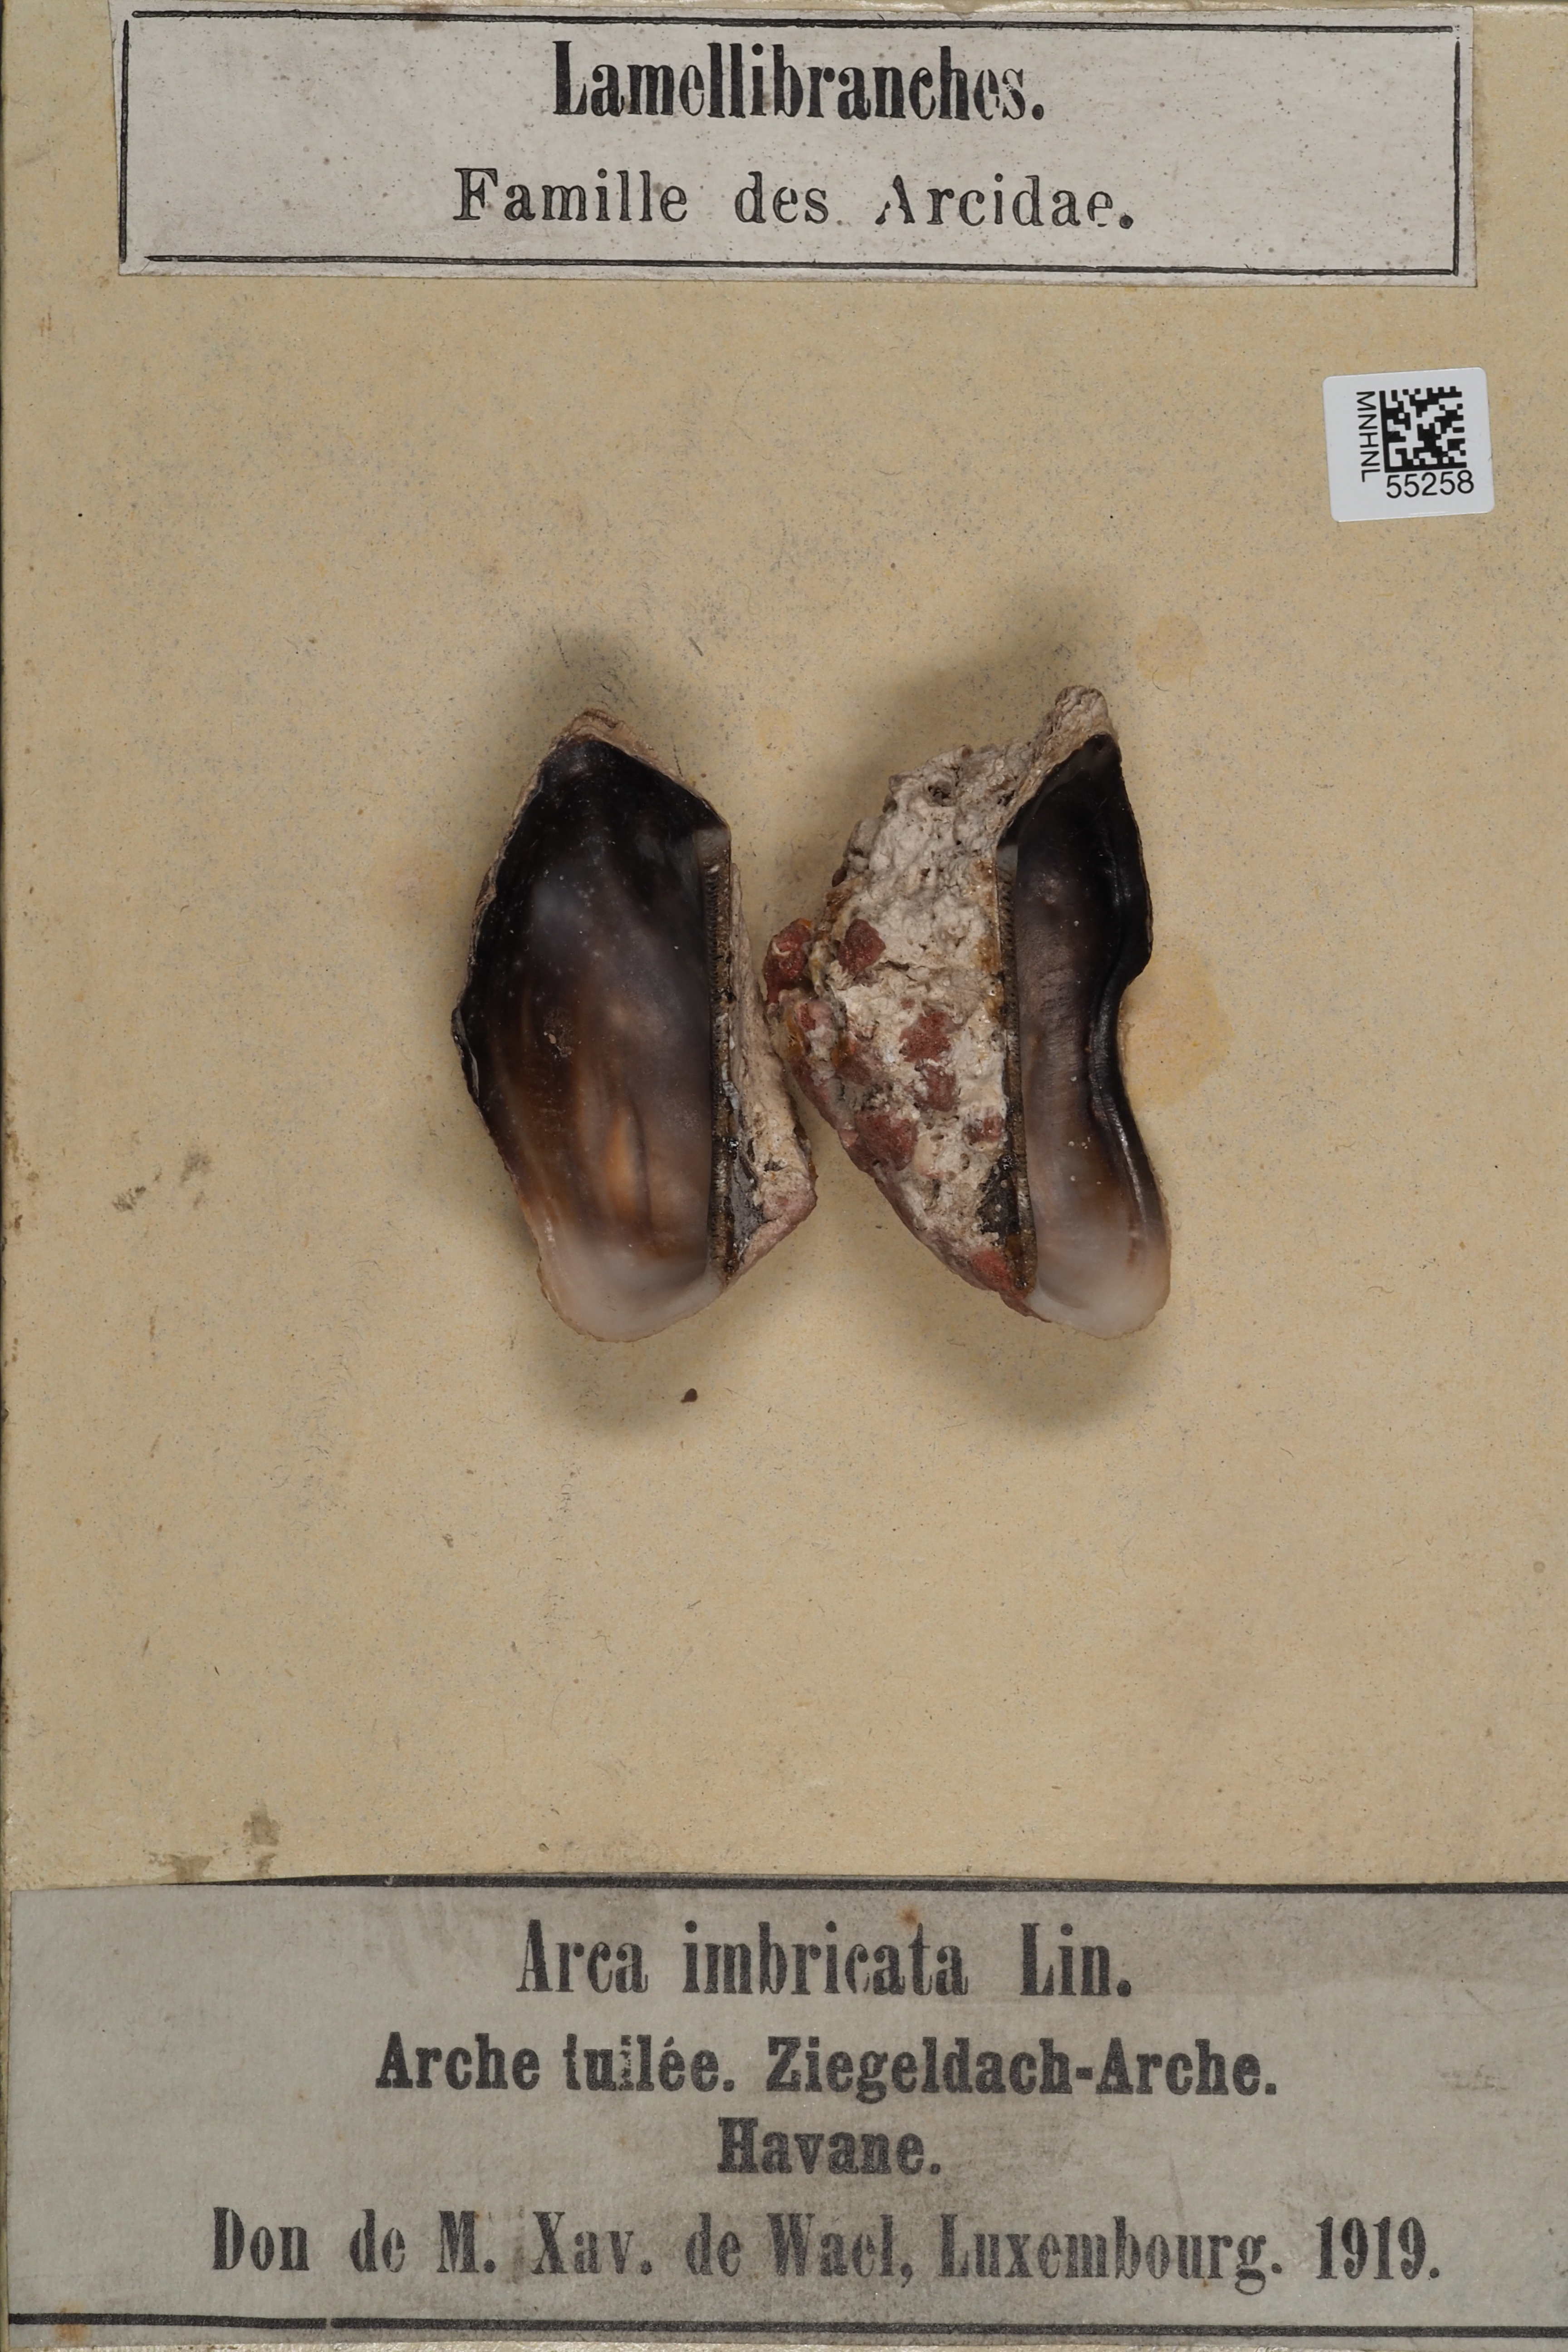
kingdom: Animalia
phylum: Mollusca
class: Bivalvia
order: Arcida
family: Arcidae
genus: Arca
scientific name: Arca
